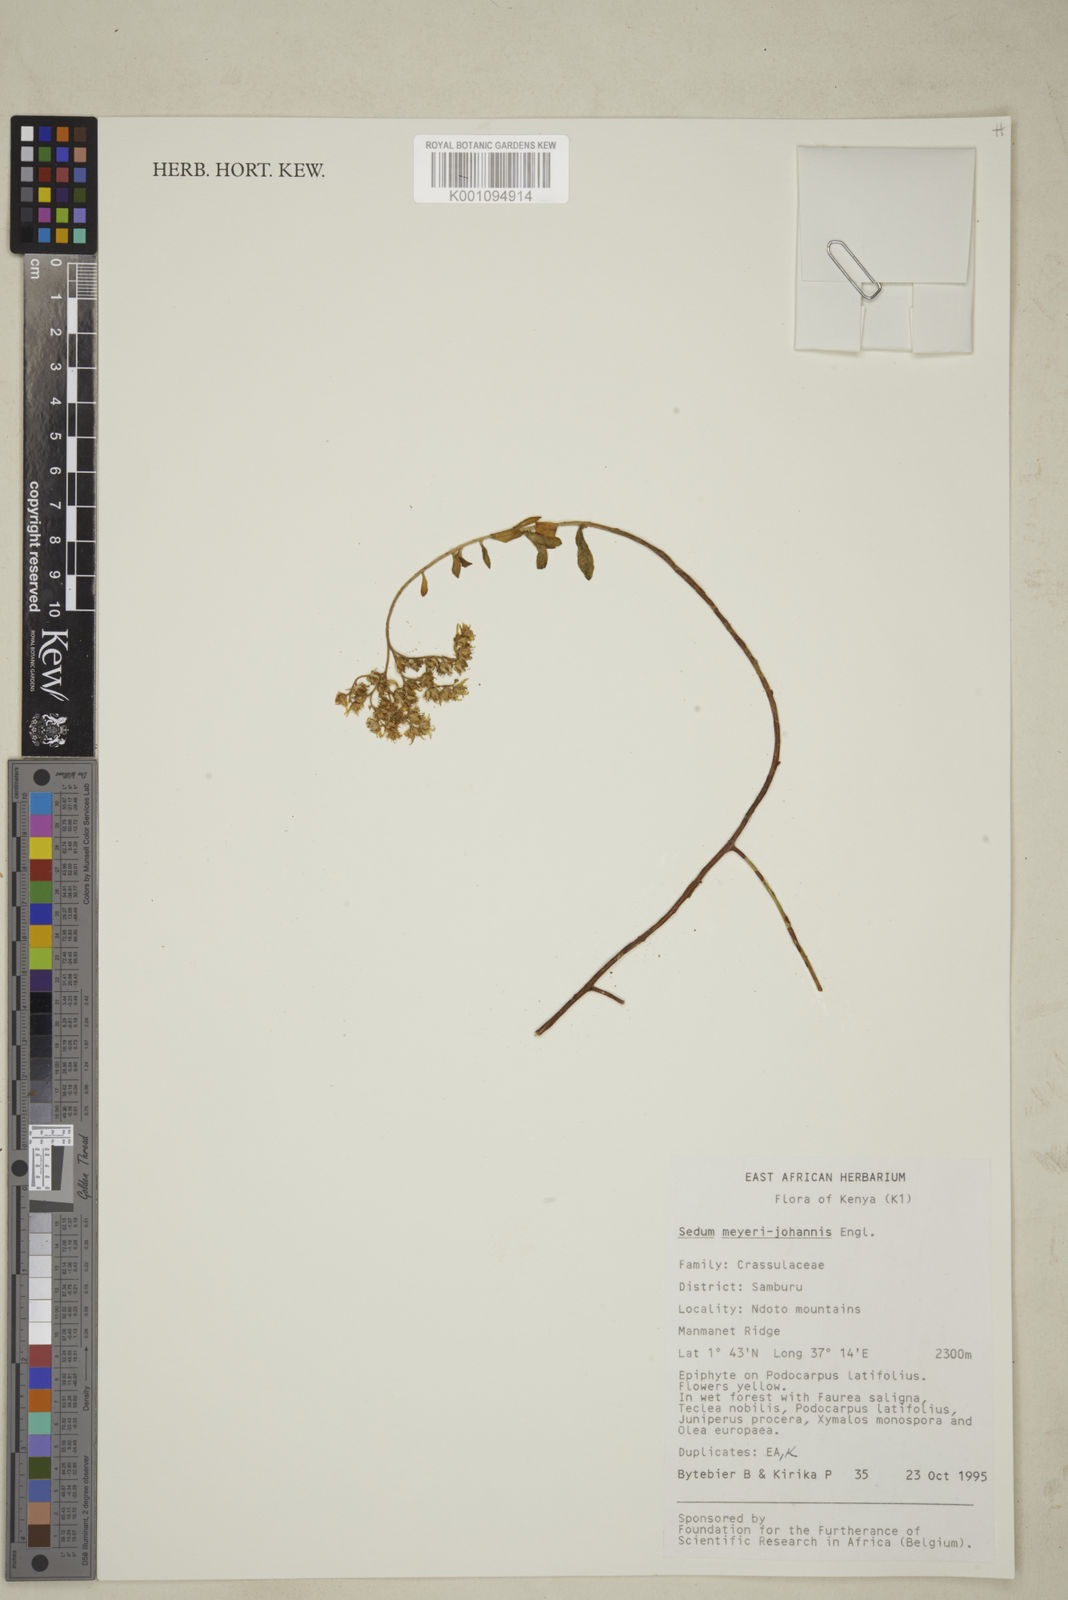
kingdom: Plantae
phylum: Tracheophyta
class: Magnoliopsida
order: Saxifragales
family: Crassulaceae
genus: Sedum
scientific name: Sedum meyeri-johannis
